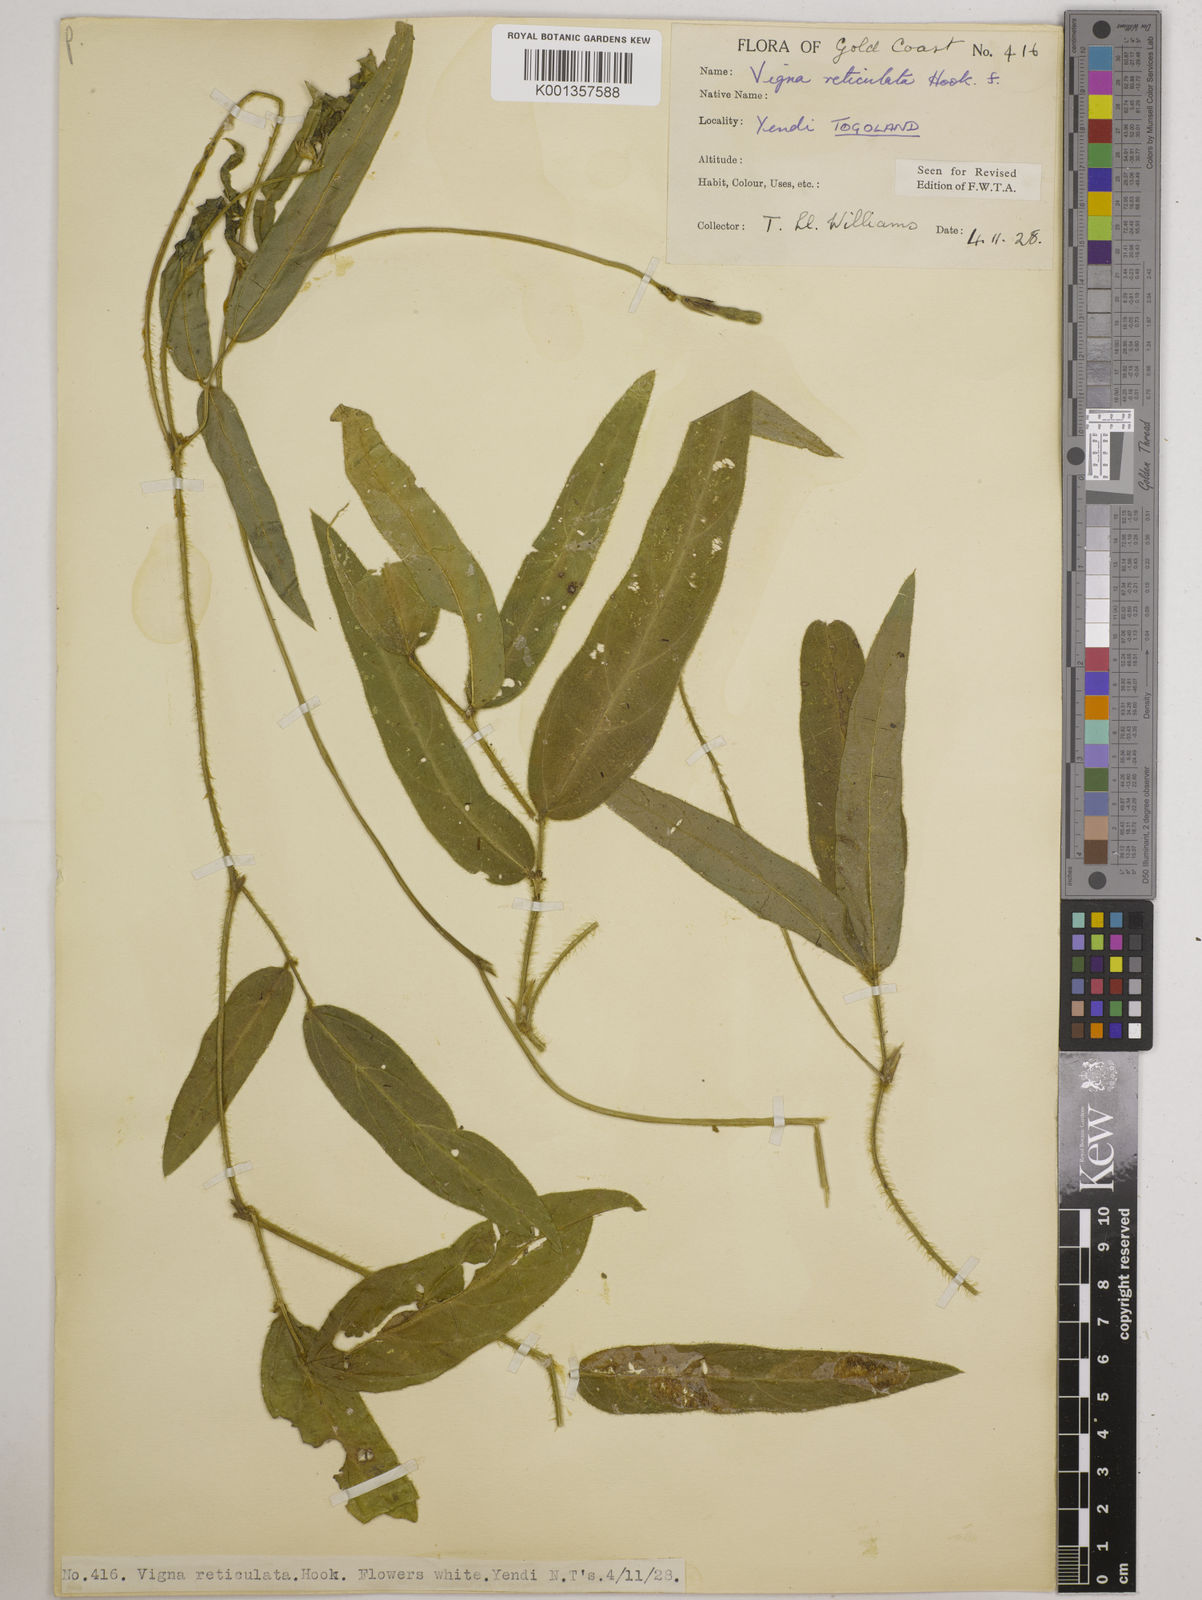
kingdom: Plantae
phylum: Tracheophyta
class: Magnoliopsida
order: Fabales
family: Fabaceae
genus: Vigna
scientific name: Vigna reticulata
